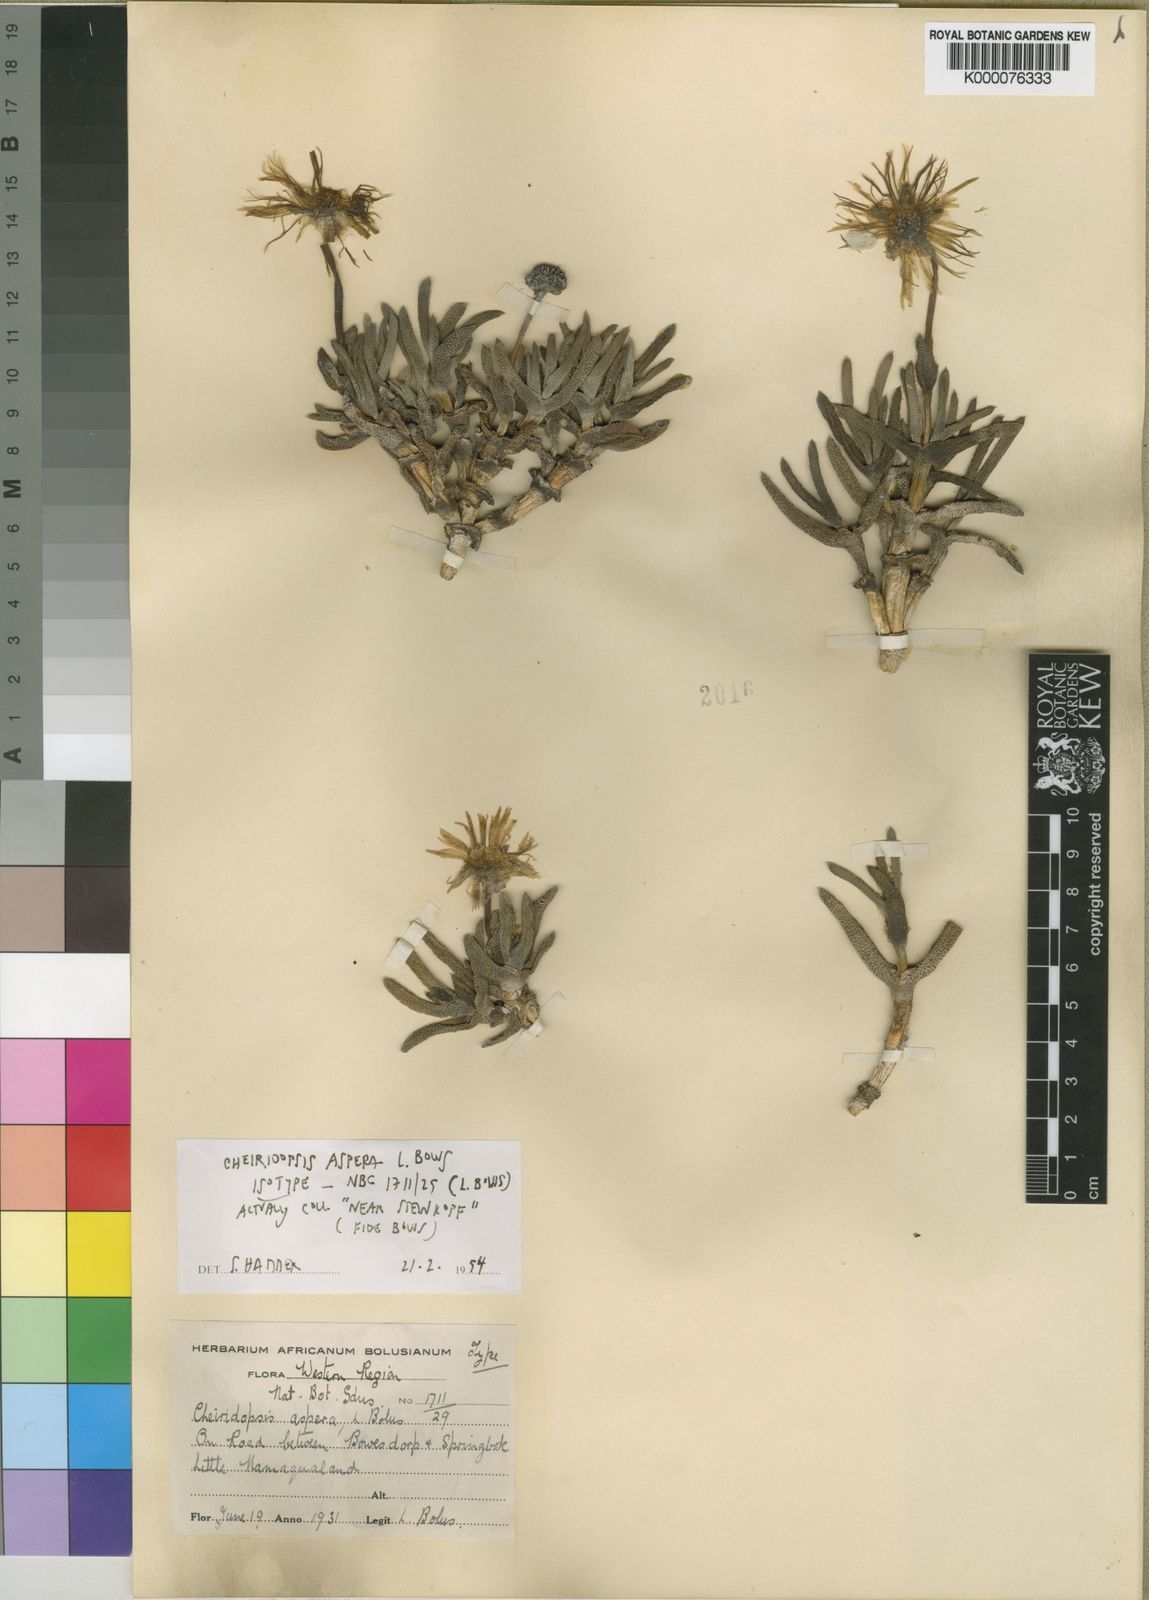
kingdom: Plantae
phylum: Tracheophyta
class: Magnoliopsida
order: Caryophyllales
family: Aizoaceae
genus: Cheiridopsis
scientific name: Cheiridopsis aspera
